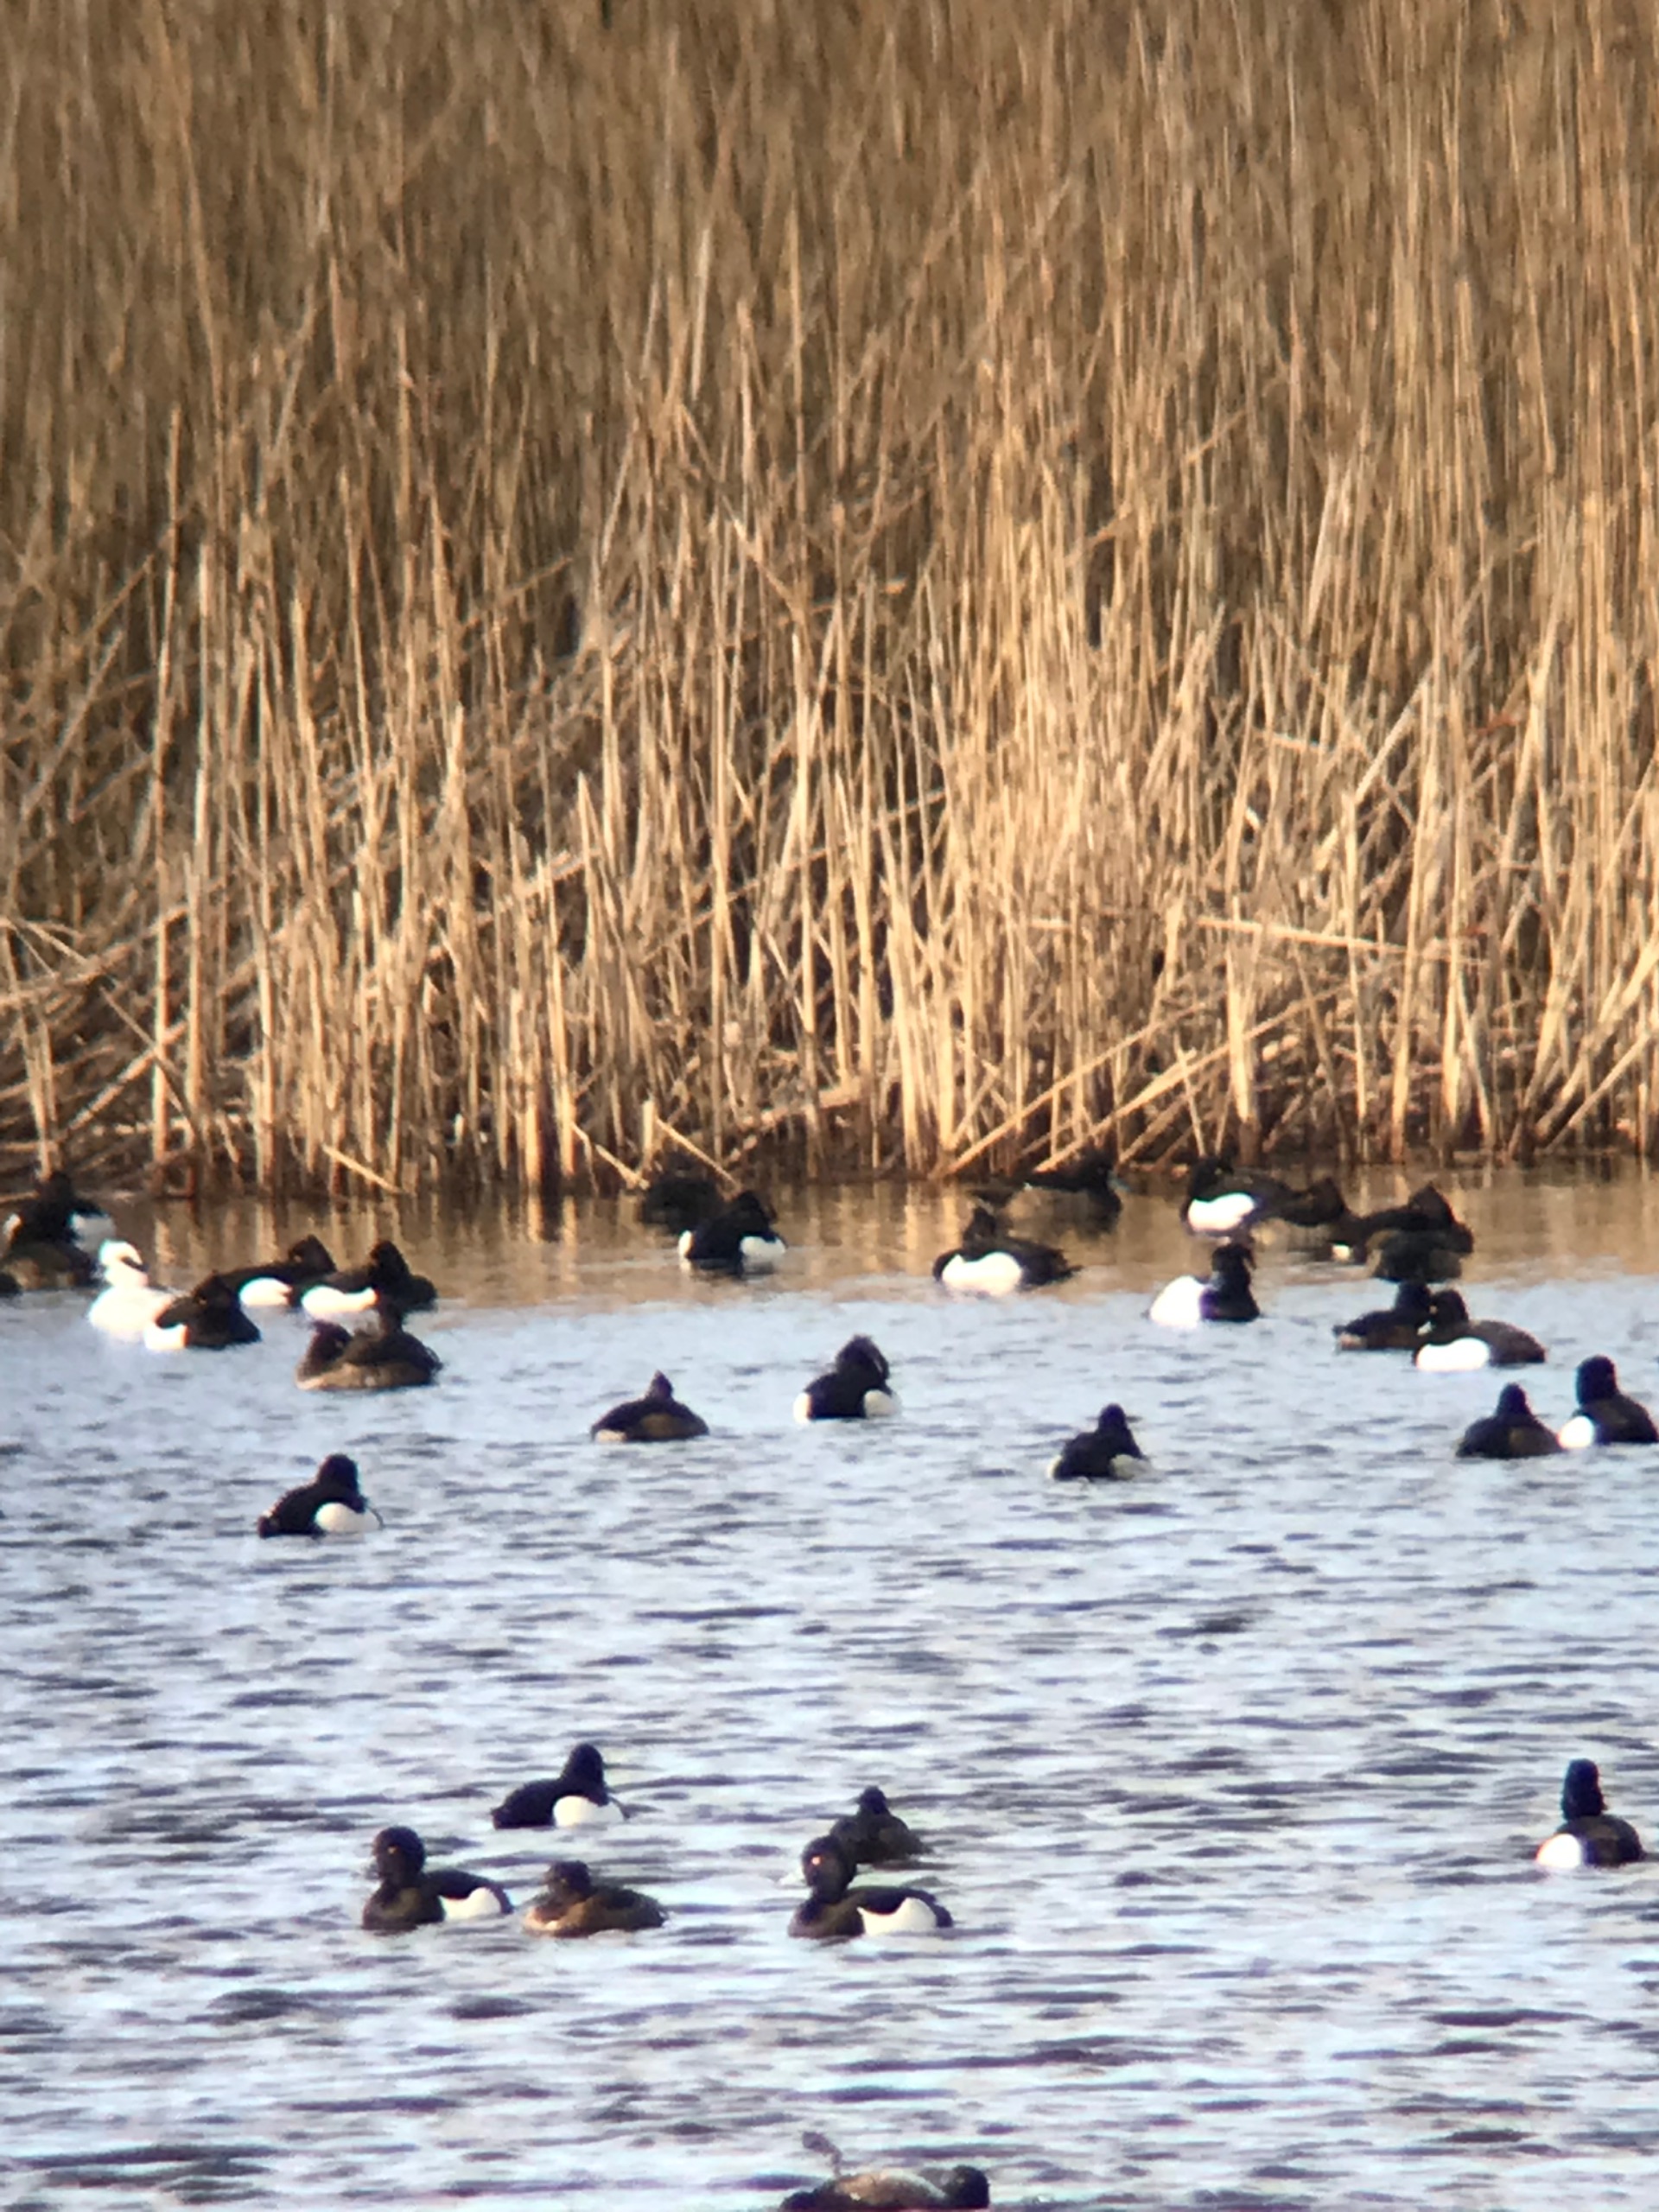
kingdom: Animalia
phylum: Chordata
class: Aves
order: Anseriformes
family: Anatidae
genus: Aythya
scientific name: Aythya fuligula
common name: Troldand
